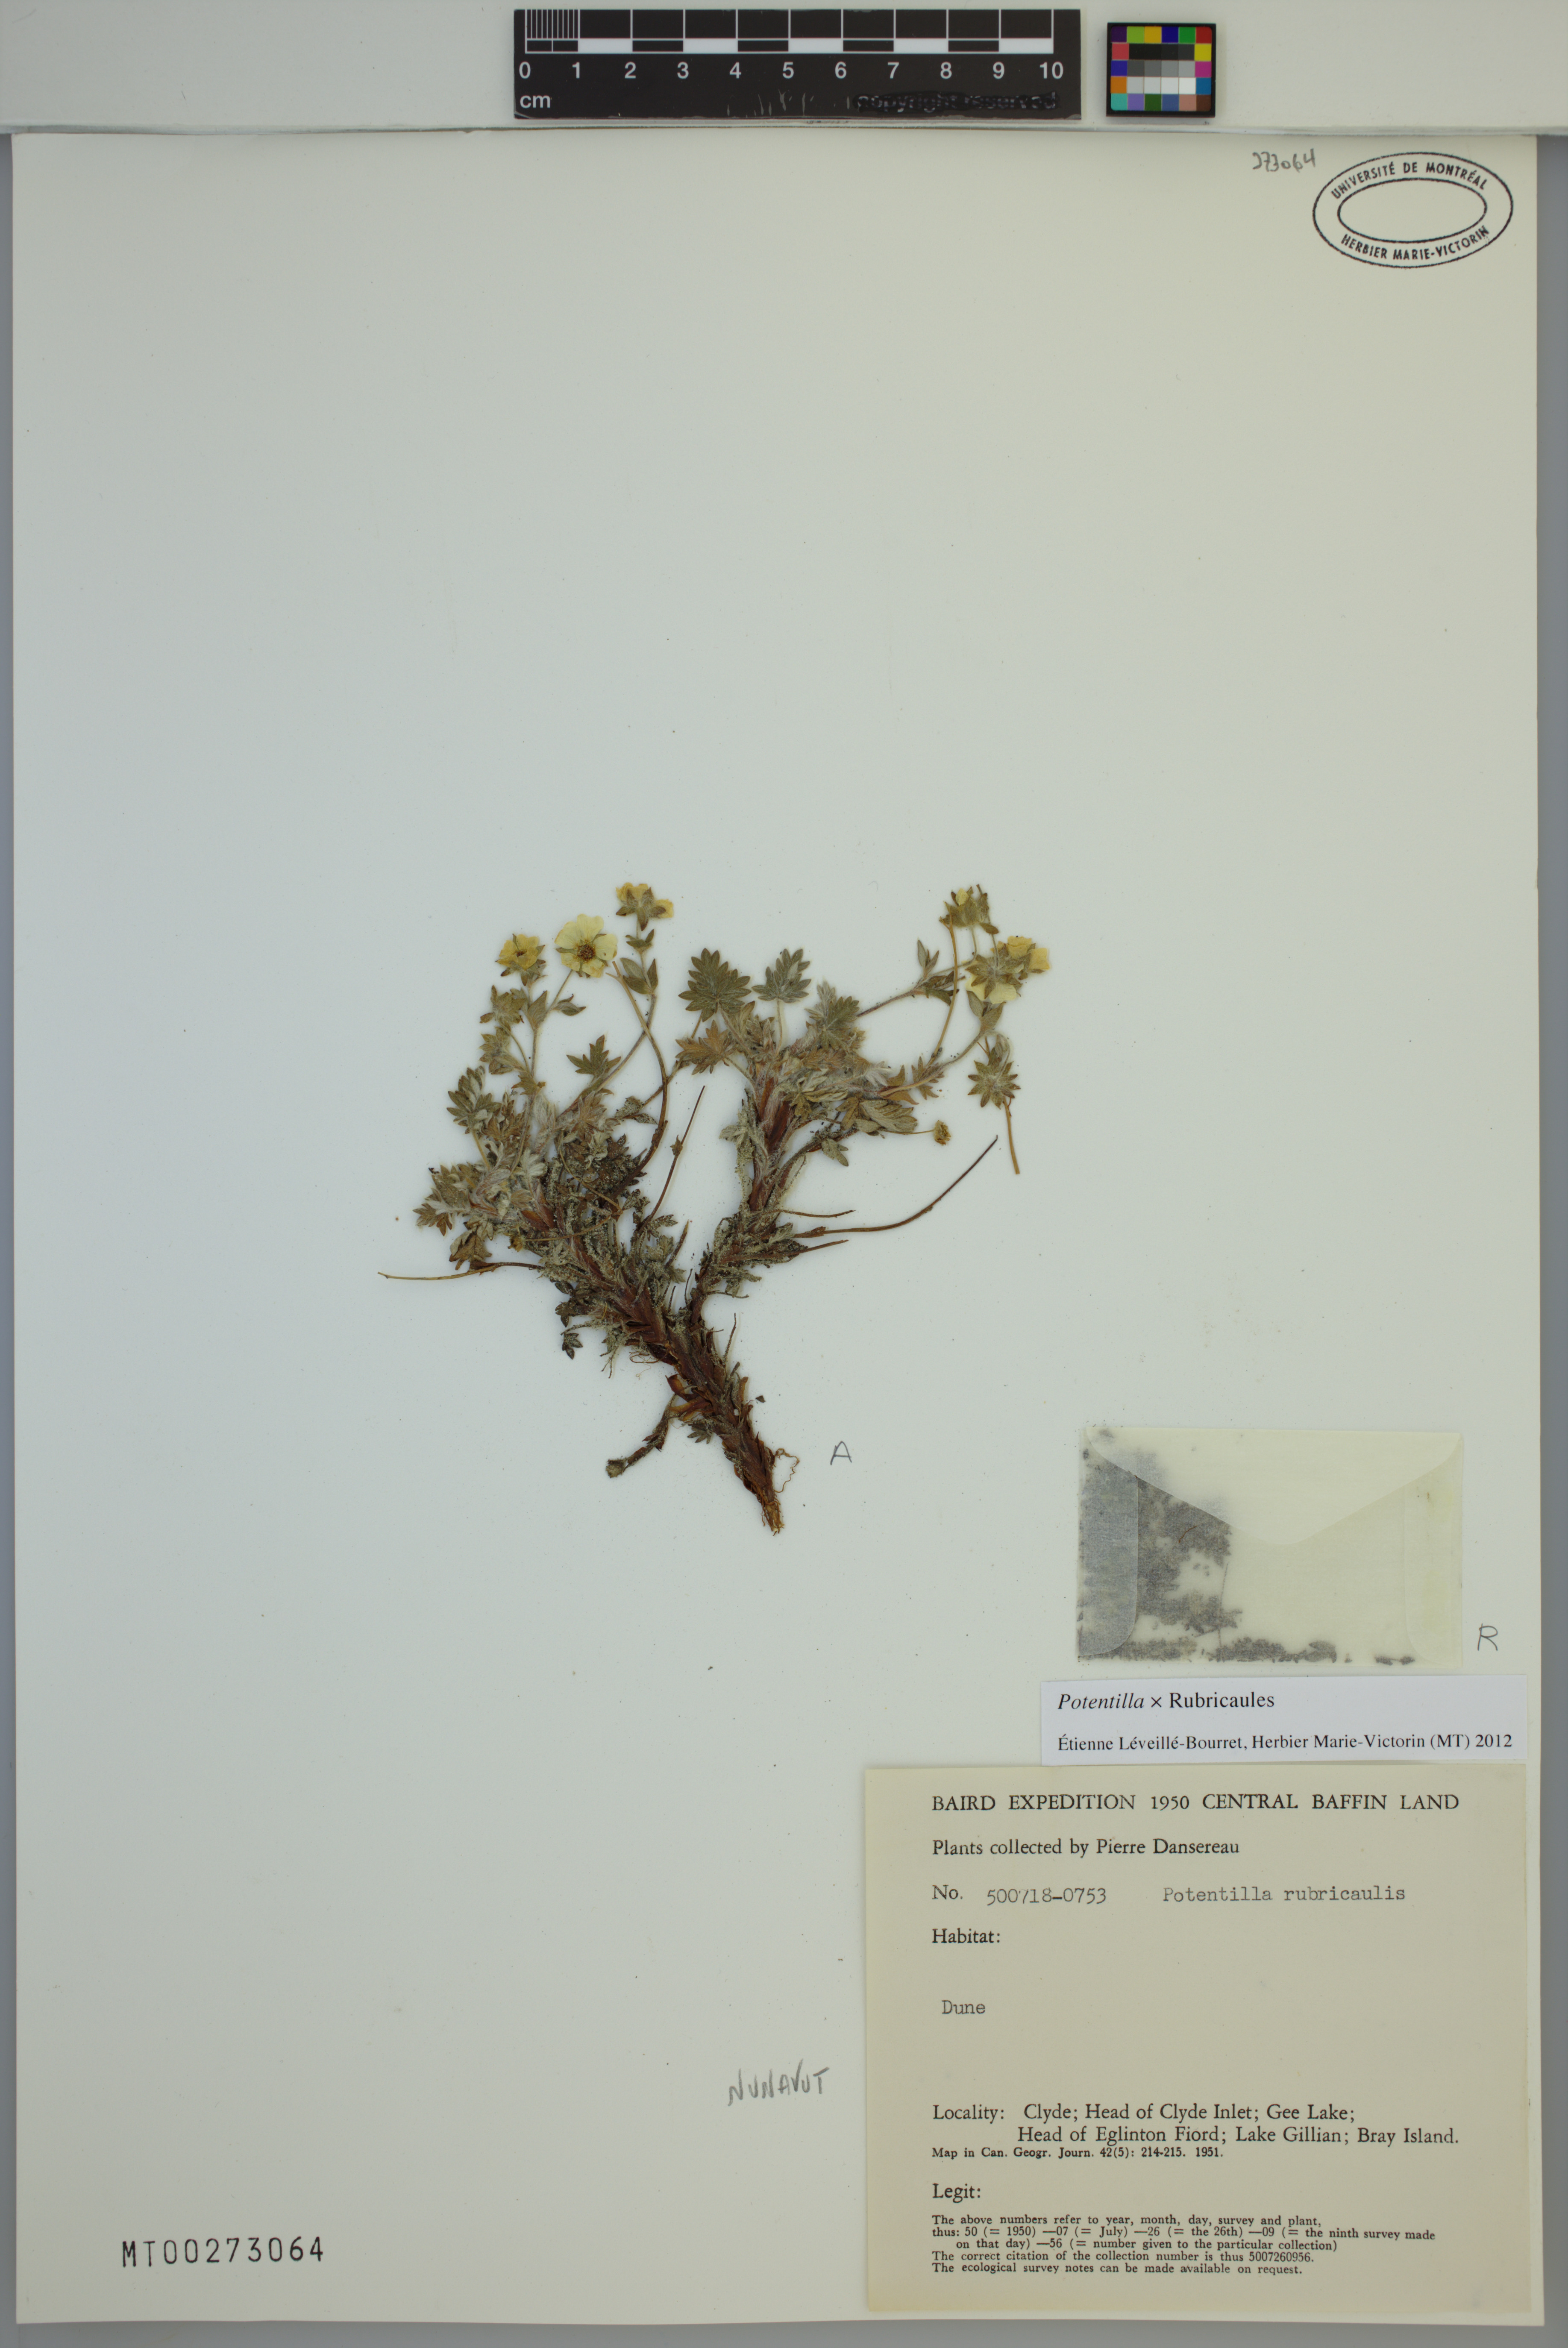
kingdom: Plantae
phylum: Tracheophyta
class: Magnoliopsida
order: Rosales
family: Rosaceae
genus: Potentilla
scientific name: Potentilla rubricaulis
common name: Red-stemmed cinquefoil
